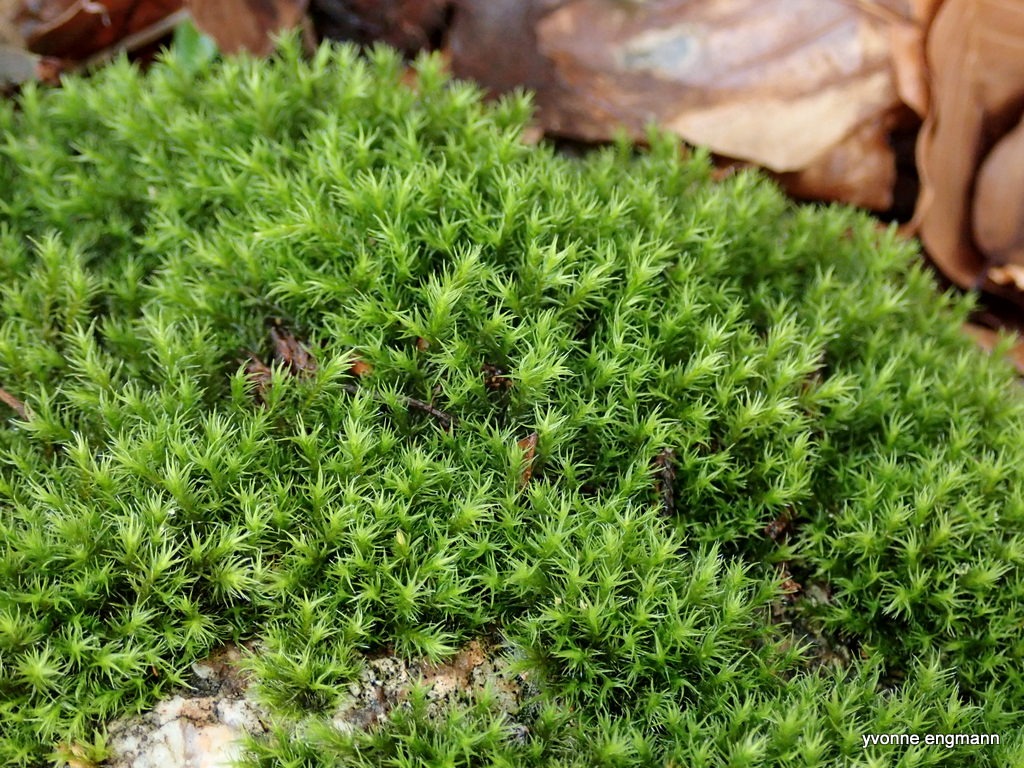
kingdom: Plantae
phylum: Bryophyta
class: Bryopsida
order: Grimmiales
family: Grimmiaceae
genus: Grimmia
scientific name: Grimmia hartmanii
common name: Hartmans gråmos
